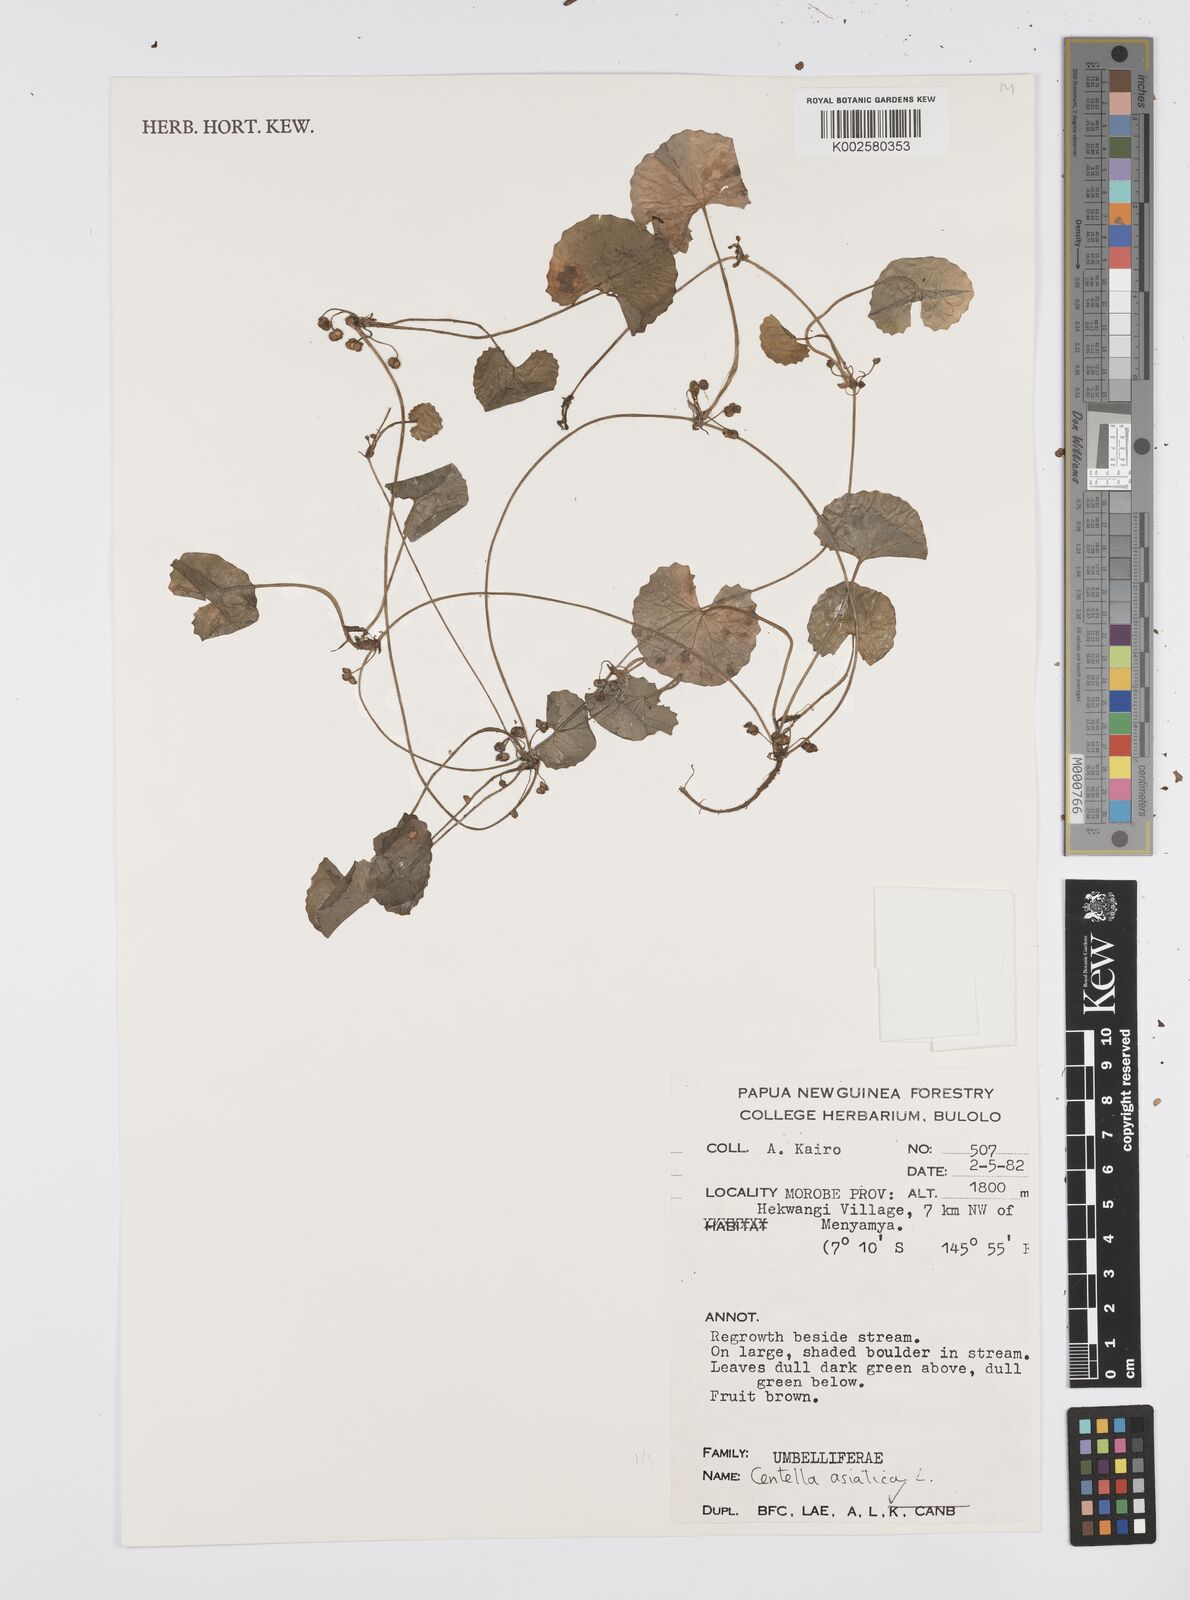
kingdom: Plantae
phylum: Tracheophyta
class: Magnoliopsida
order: Apiales
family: Apiaceae
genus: Centella
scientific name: Centella asiatica
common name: Spadeleaf
